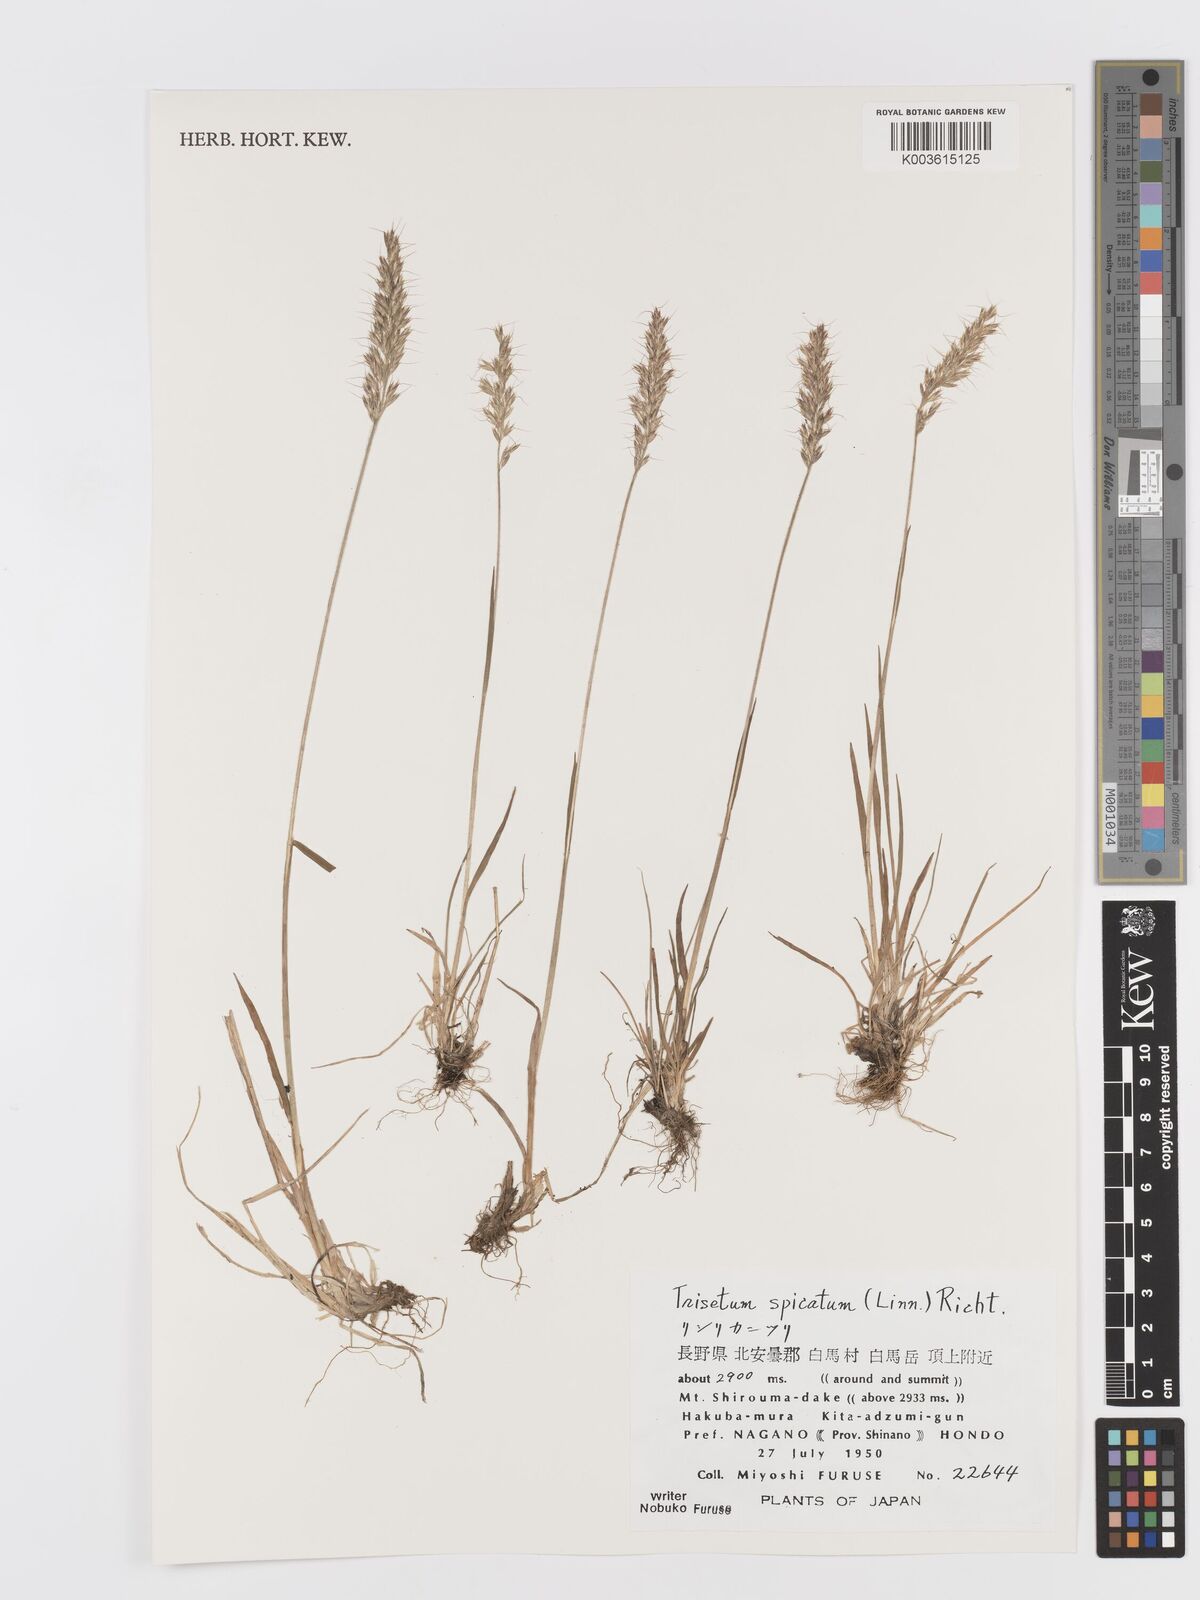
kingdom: Plantae
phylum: Tracheophyta
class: Liliopsida
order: Poales
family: Poaceae
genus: Koeleria
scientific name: Koeleria spicata
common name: Mountain trisetum
